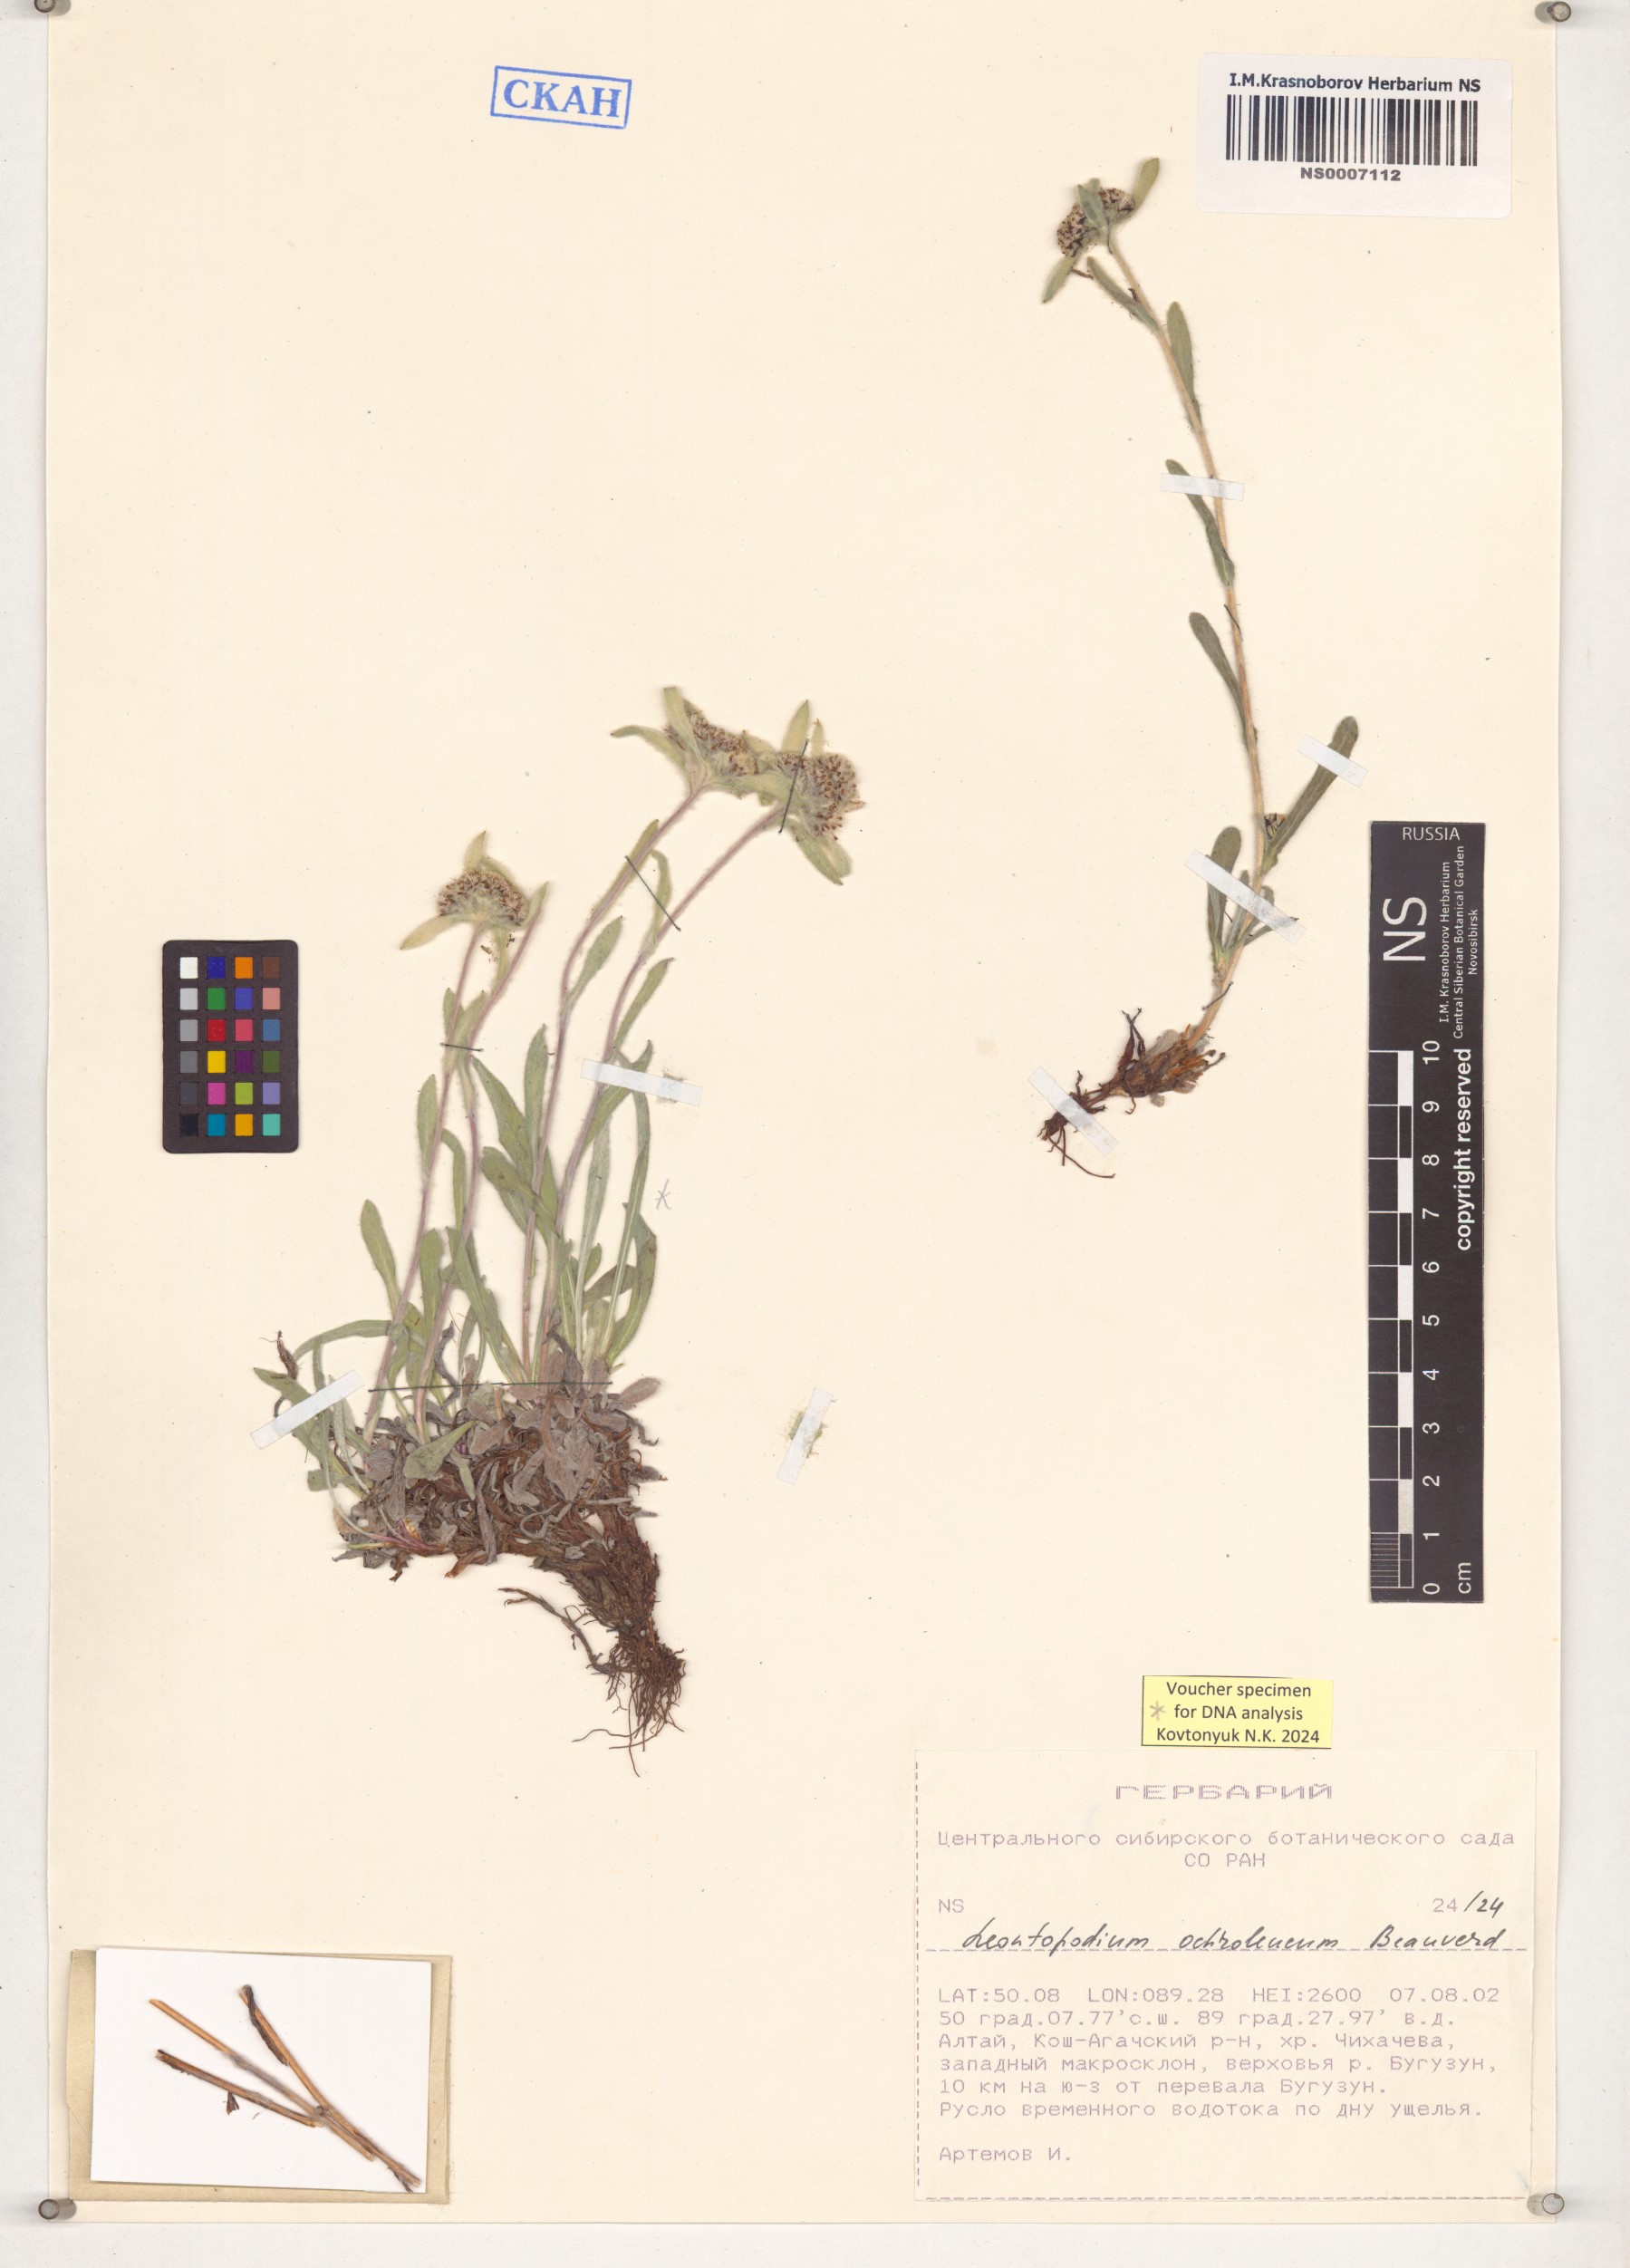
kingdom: Plantae
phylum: Tracheophyta
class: Magnoliopsida
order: Asterales
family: Asteraceae
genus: Leontopodium
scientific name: Leontopodium leontopodinum
